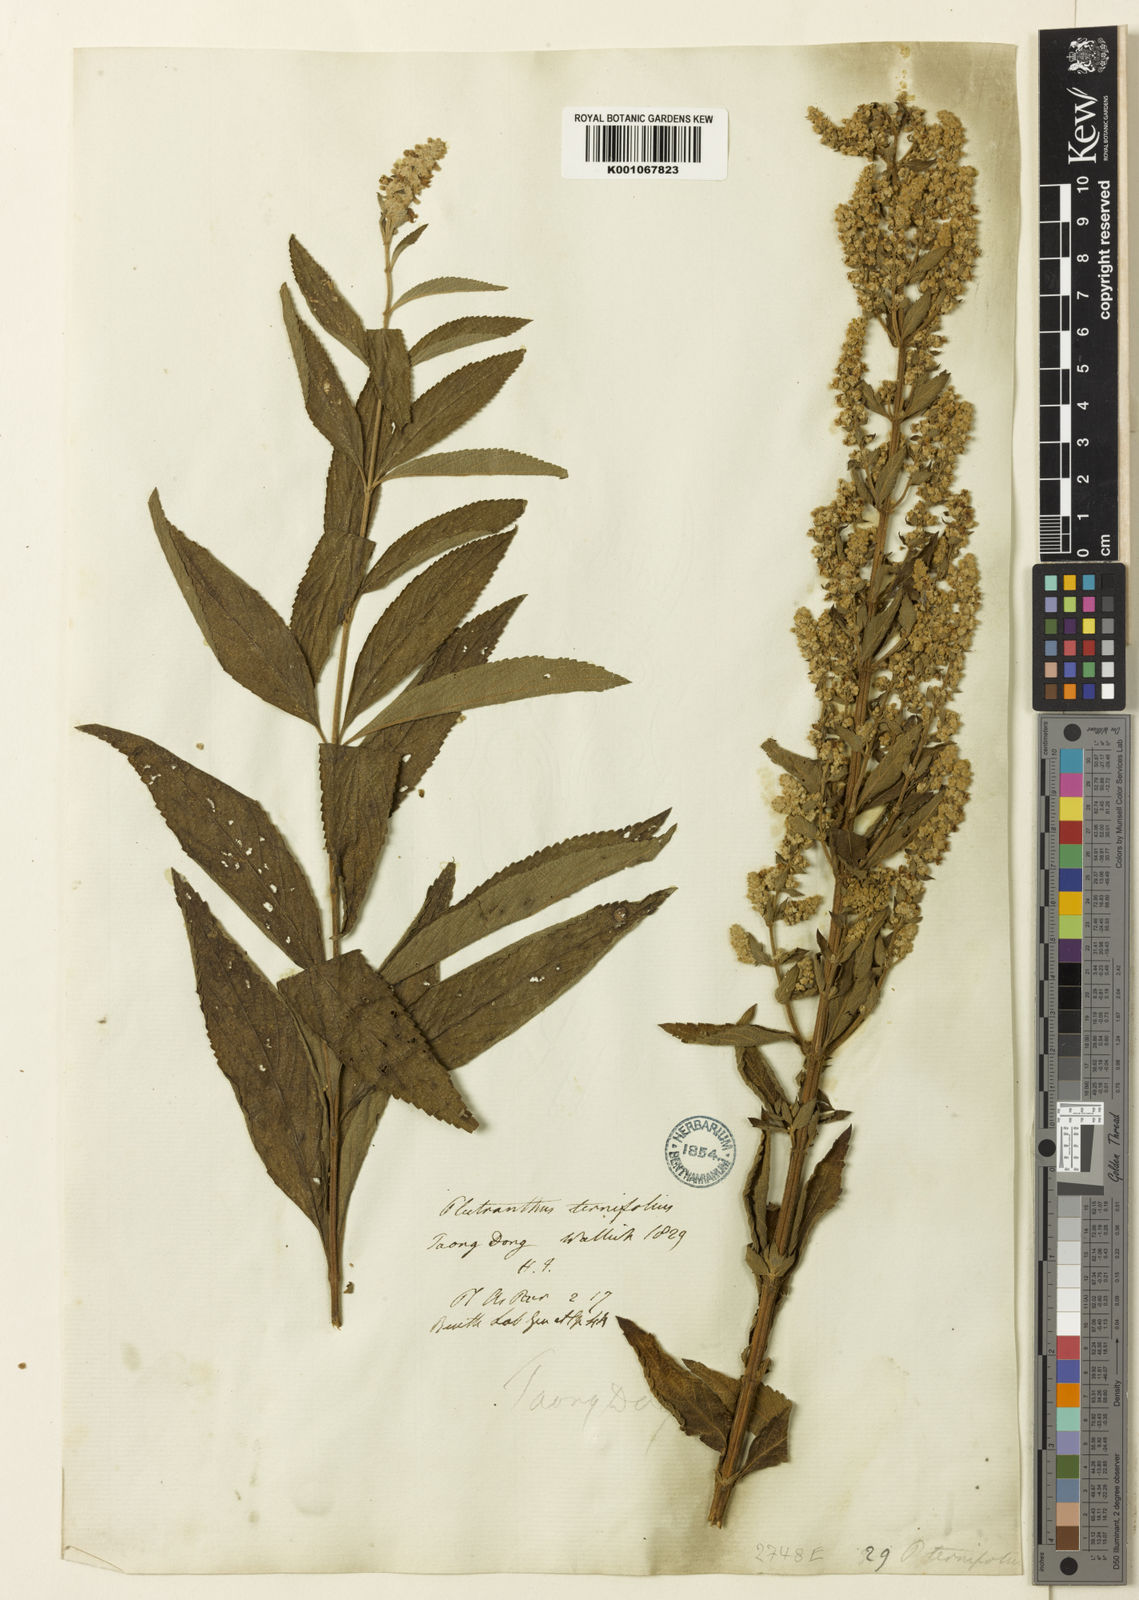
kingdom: Plantae
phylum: Tracheophyta
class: Magnoliopsida
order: Lamiales
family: Lamiaceae
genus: Isodon
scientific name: Isodon
